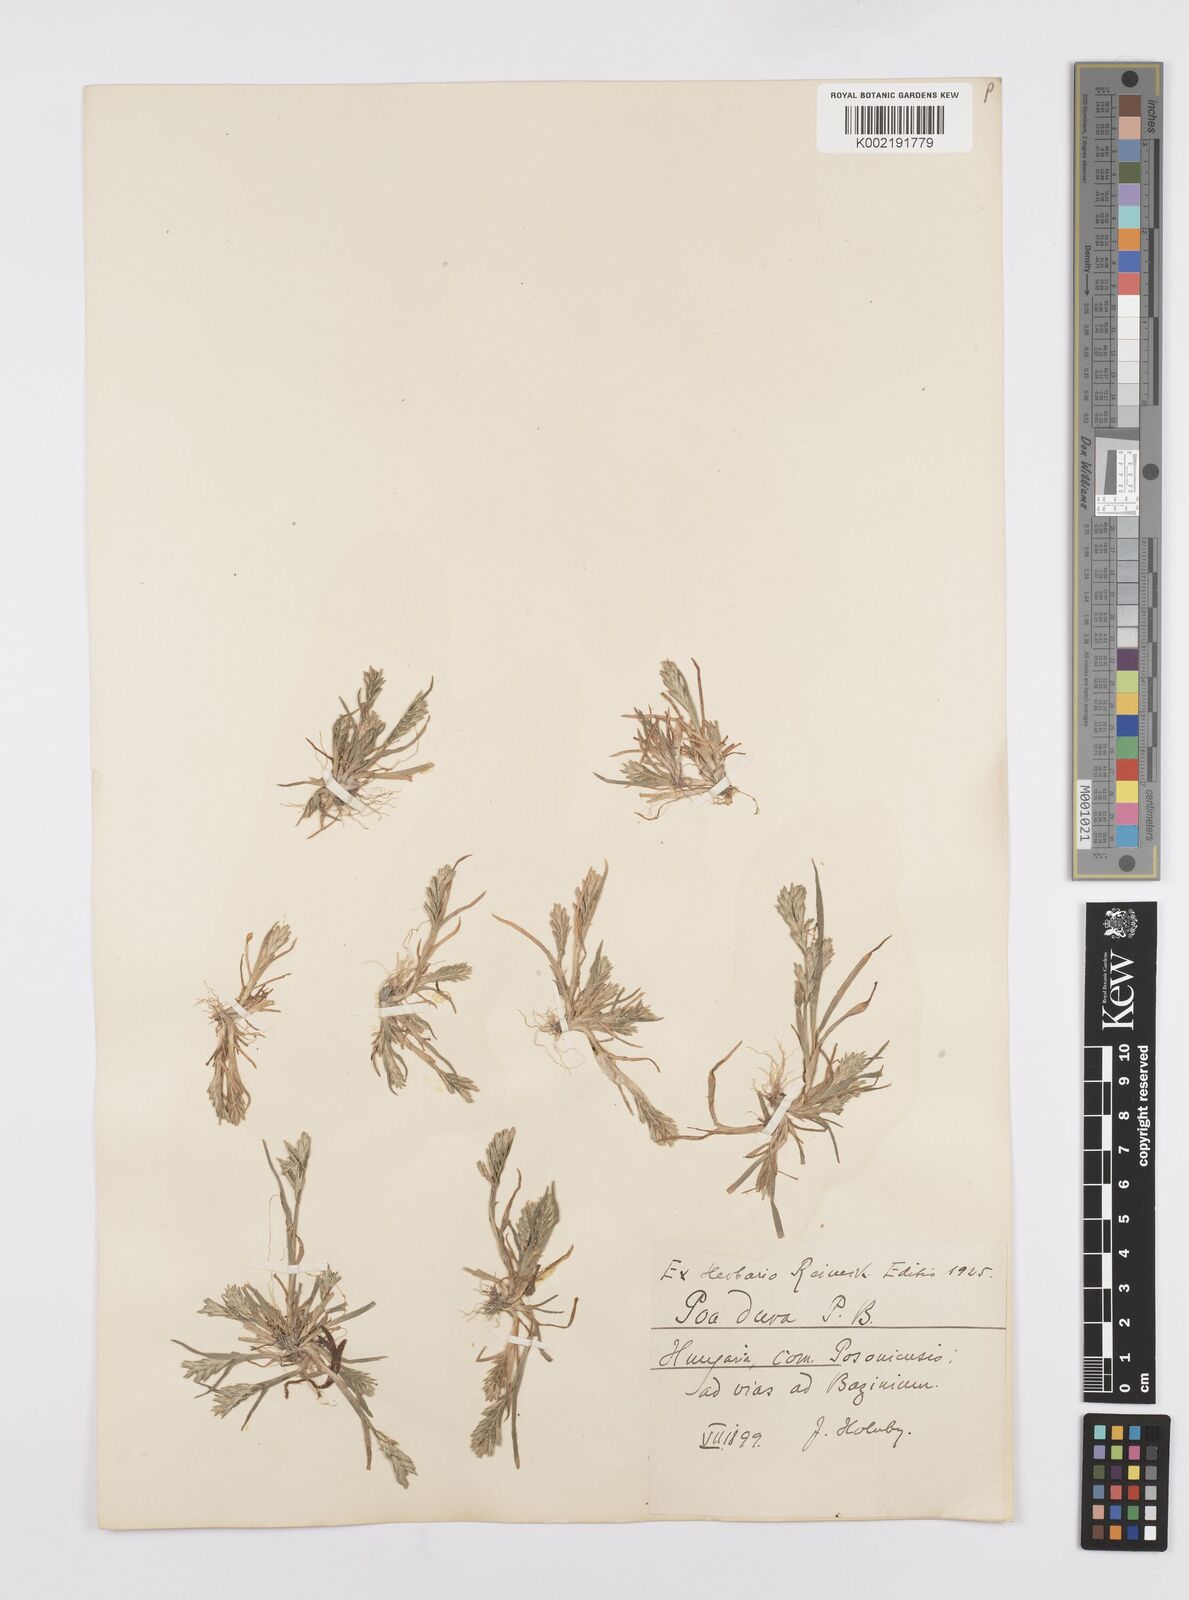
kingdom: Plantae
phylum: Tracheophyta
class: Liliopsida
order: Poales
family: Poaceae
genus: Sclerochloa
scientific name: Sclerochloa dura
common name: Common hardgrass
